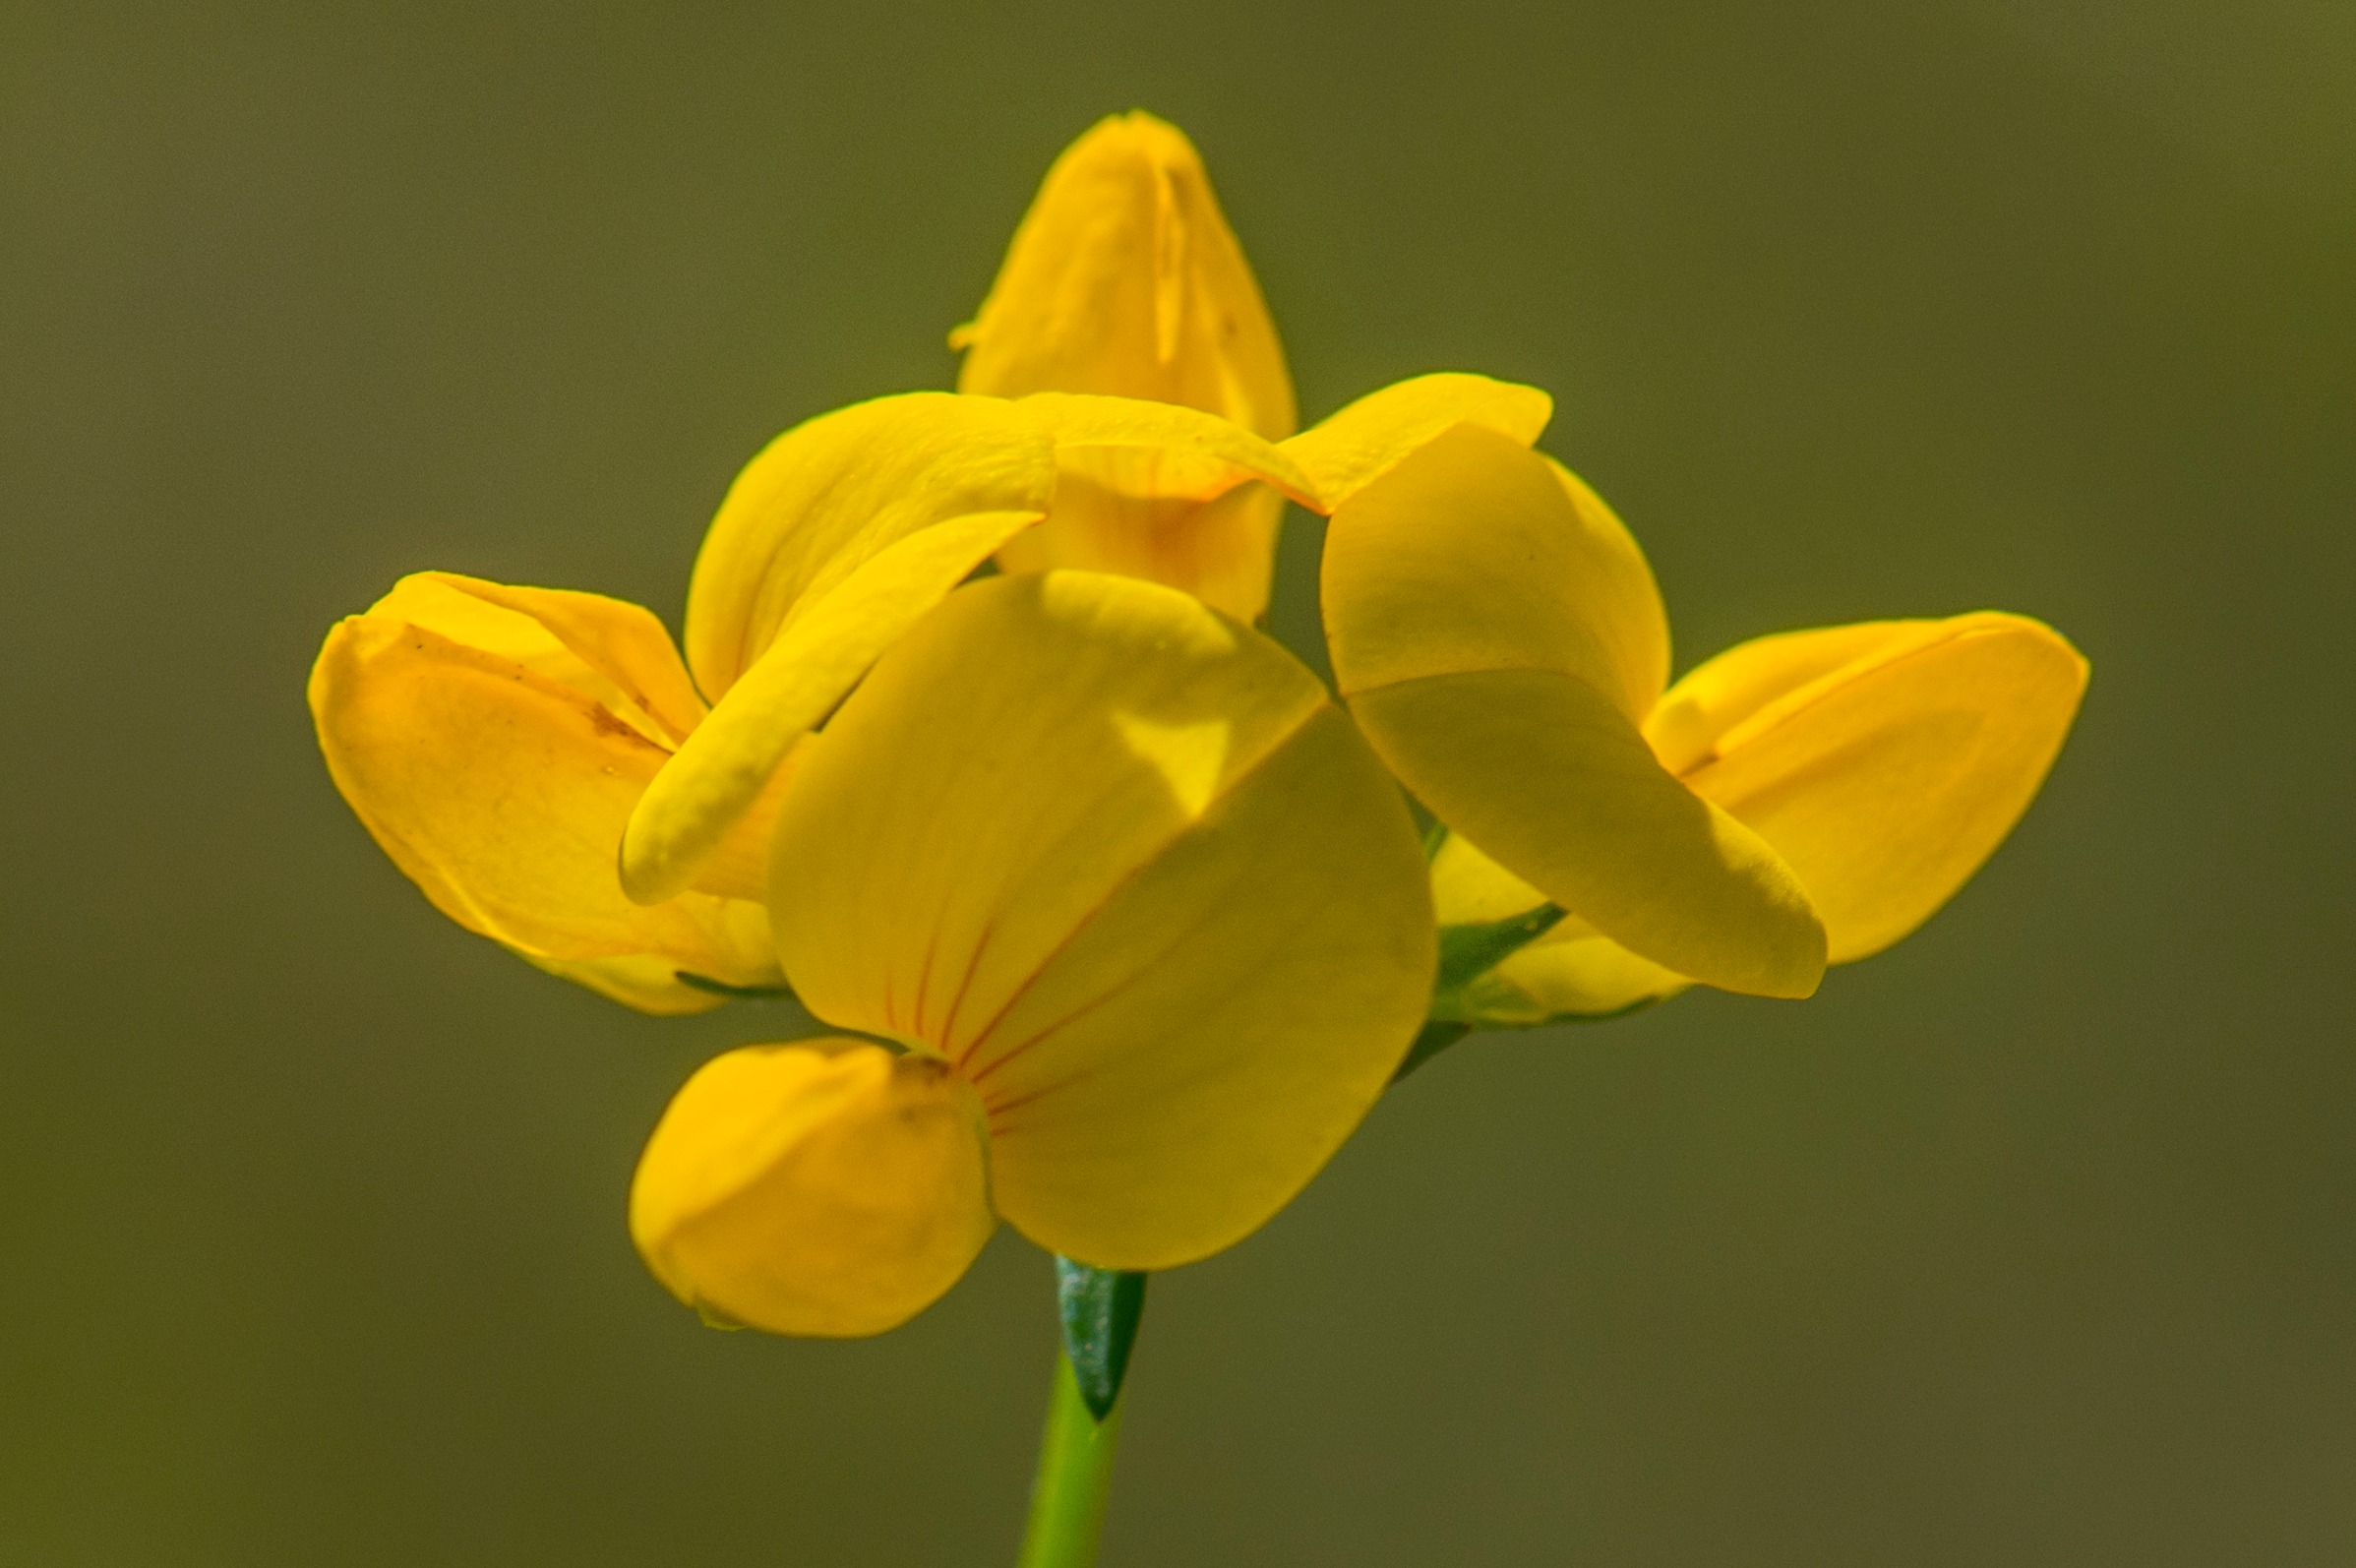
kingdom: Plantae
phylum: Tracheophyta
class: Magnoliopsida
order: Fabales
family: Fabaceae
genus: Lotus
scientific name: Lotus corniculatus
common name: Almindelig kællingetand
